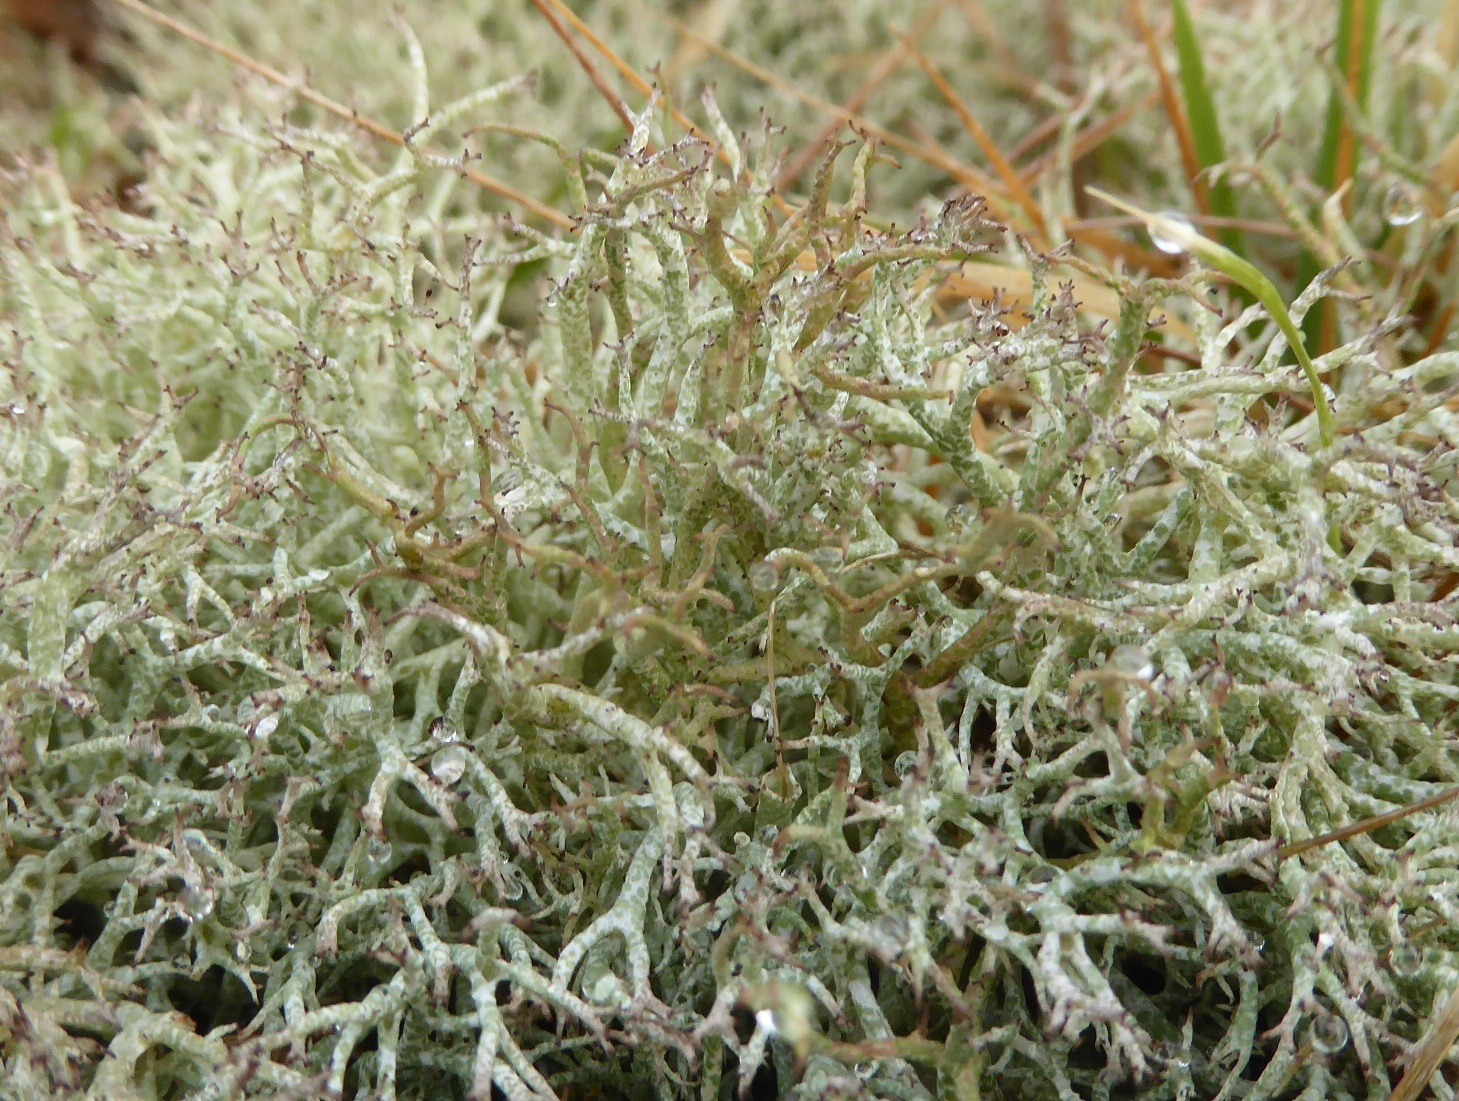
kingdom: Fungi
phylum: Ascomycota
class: Lecanoromycetes
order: Lecanorales
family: Cladoniaceae
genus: Cladonia
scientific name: Cladonia rangiformis
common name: spættet bægerlav
